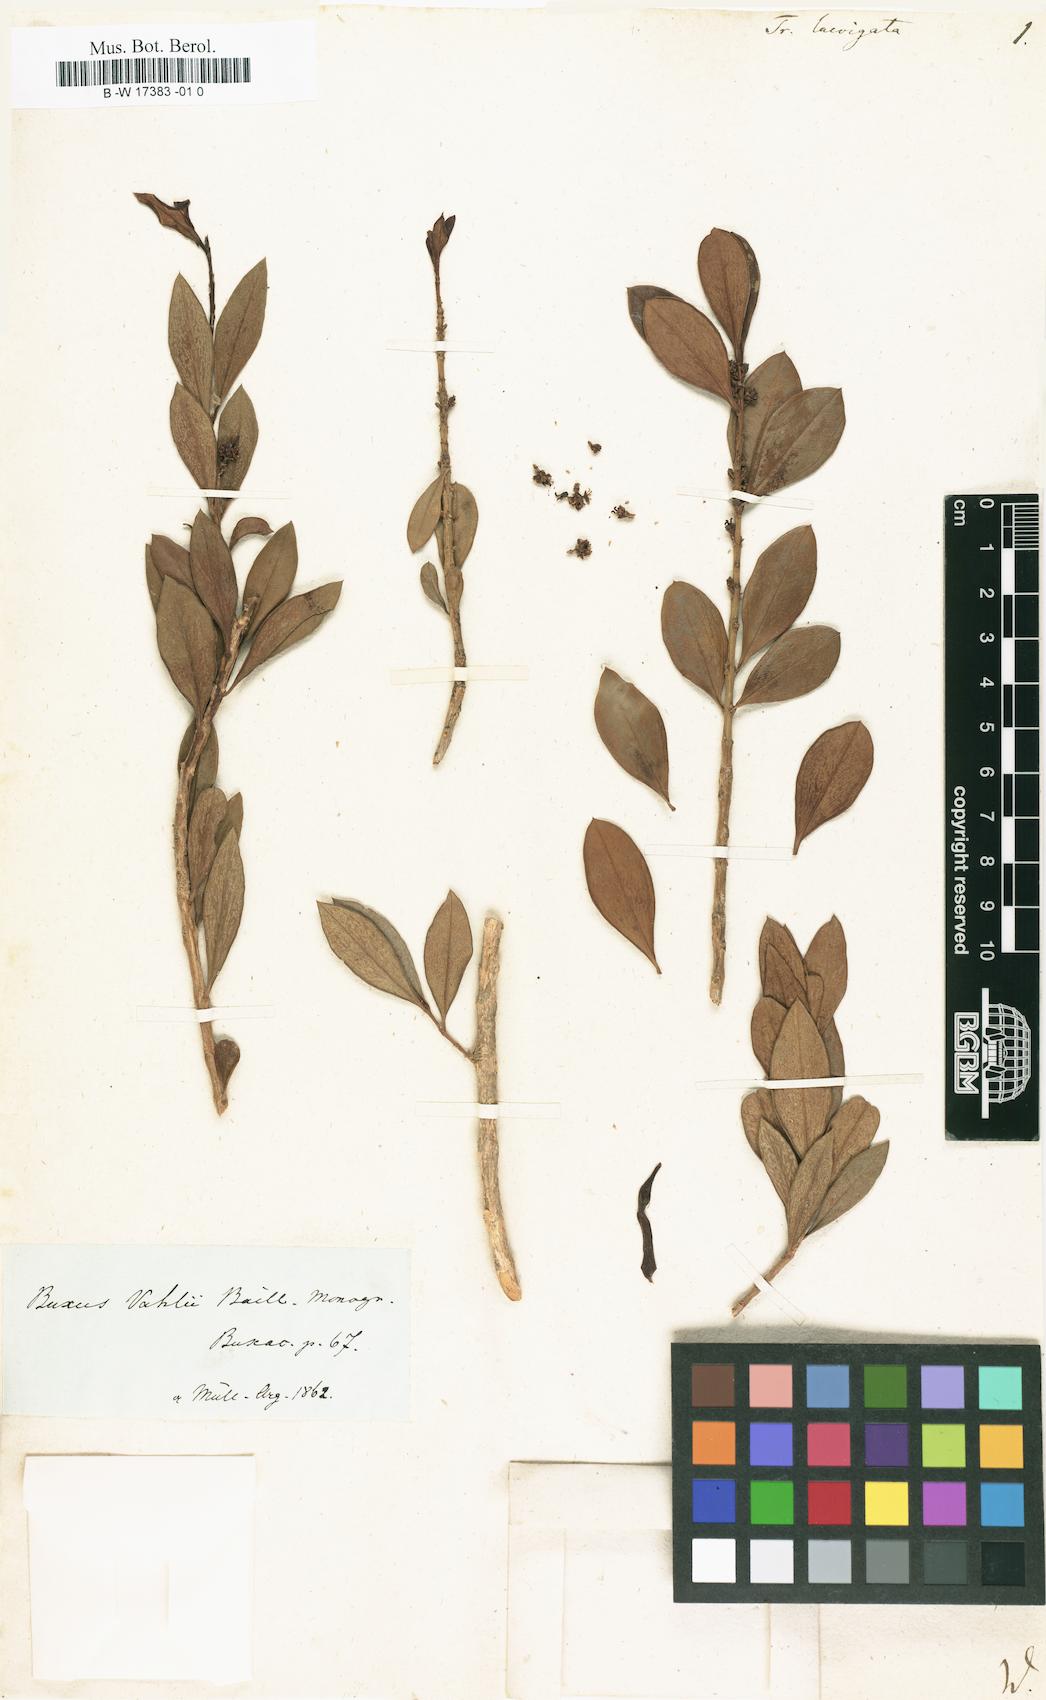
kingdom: Plantae
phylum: Tracheophyta
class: Magnoliopsida
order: Buxales
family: Buxaceae
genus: Buxus
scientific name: Buxus laevigata
